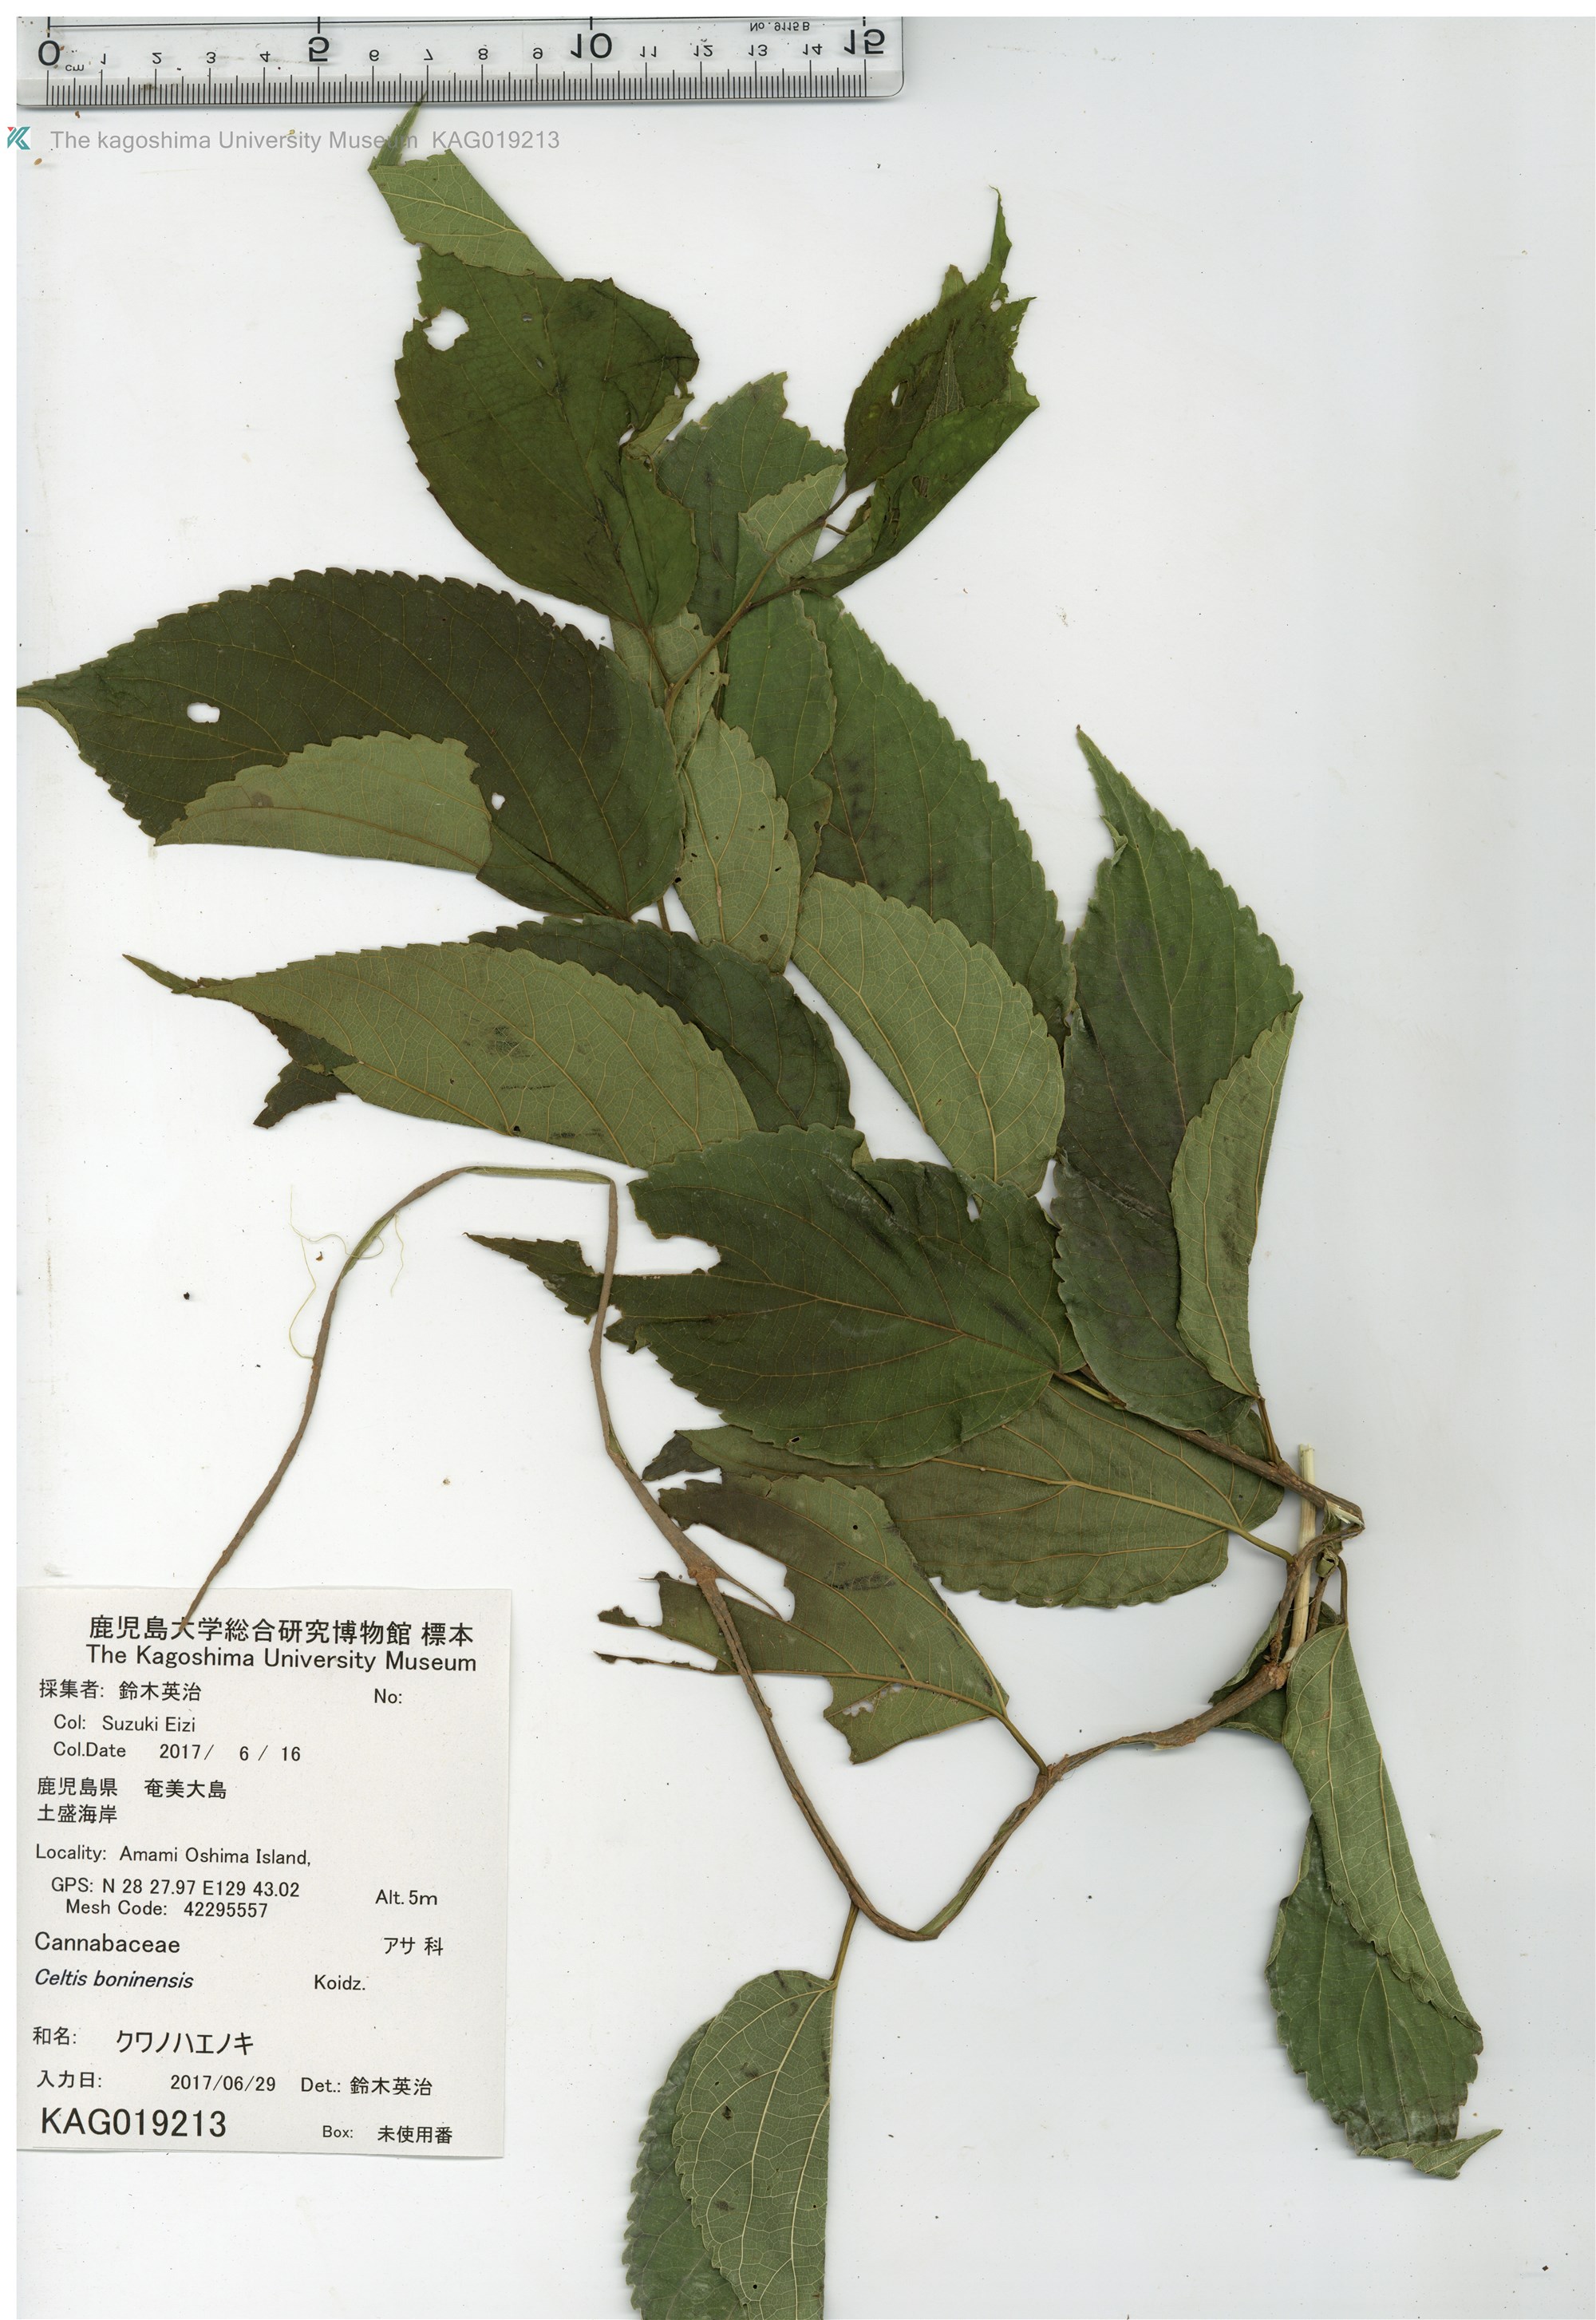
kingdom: Plantae
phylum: Tracheophyta
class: Magnoliopsida
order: Rosales
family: Cannabaceae
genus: Celtis
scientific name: Celtis boninensis
